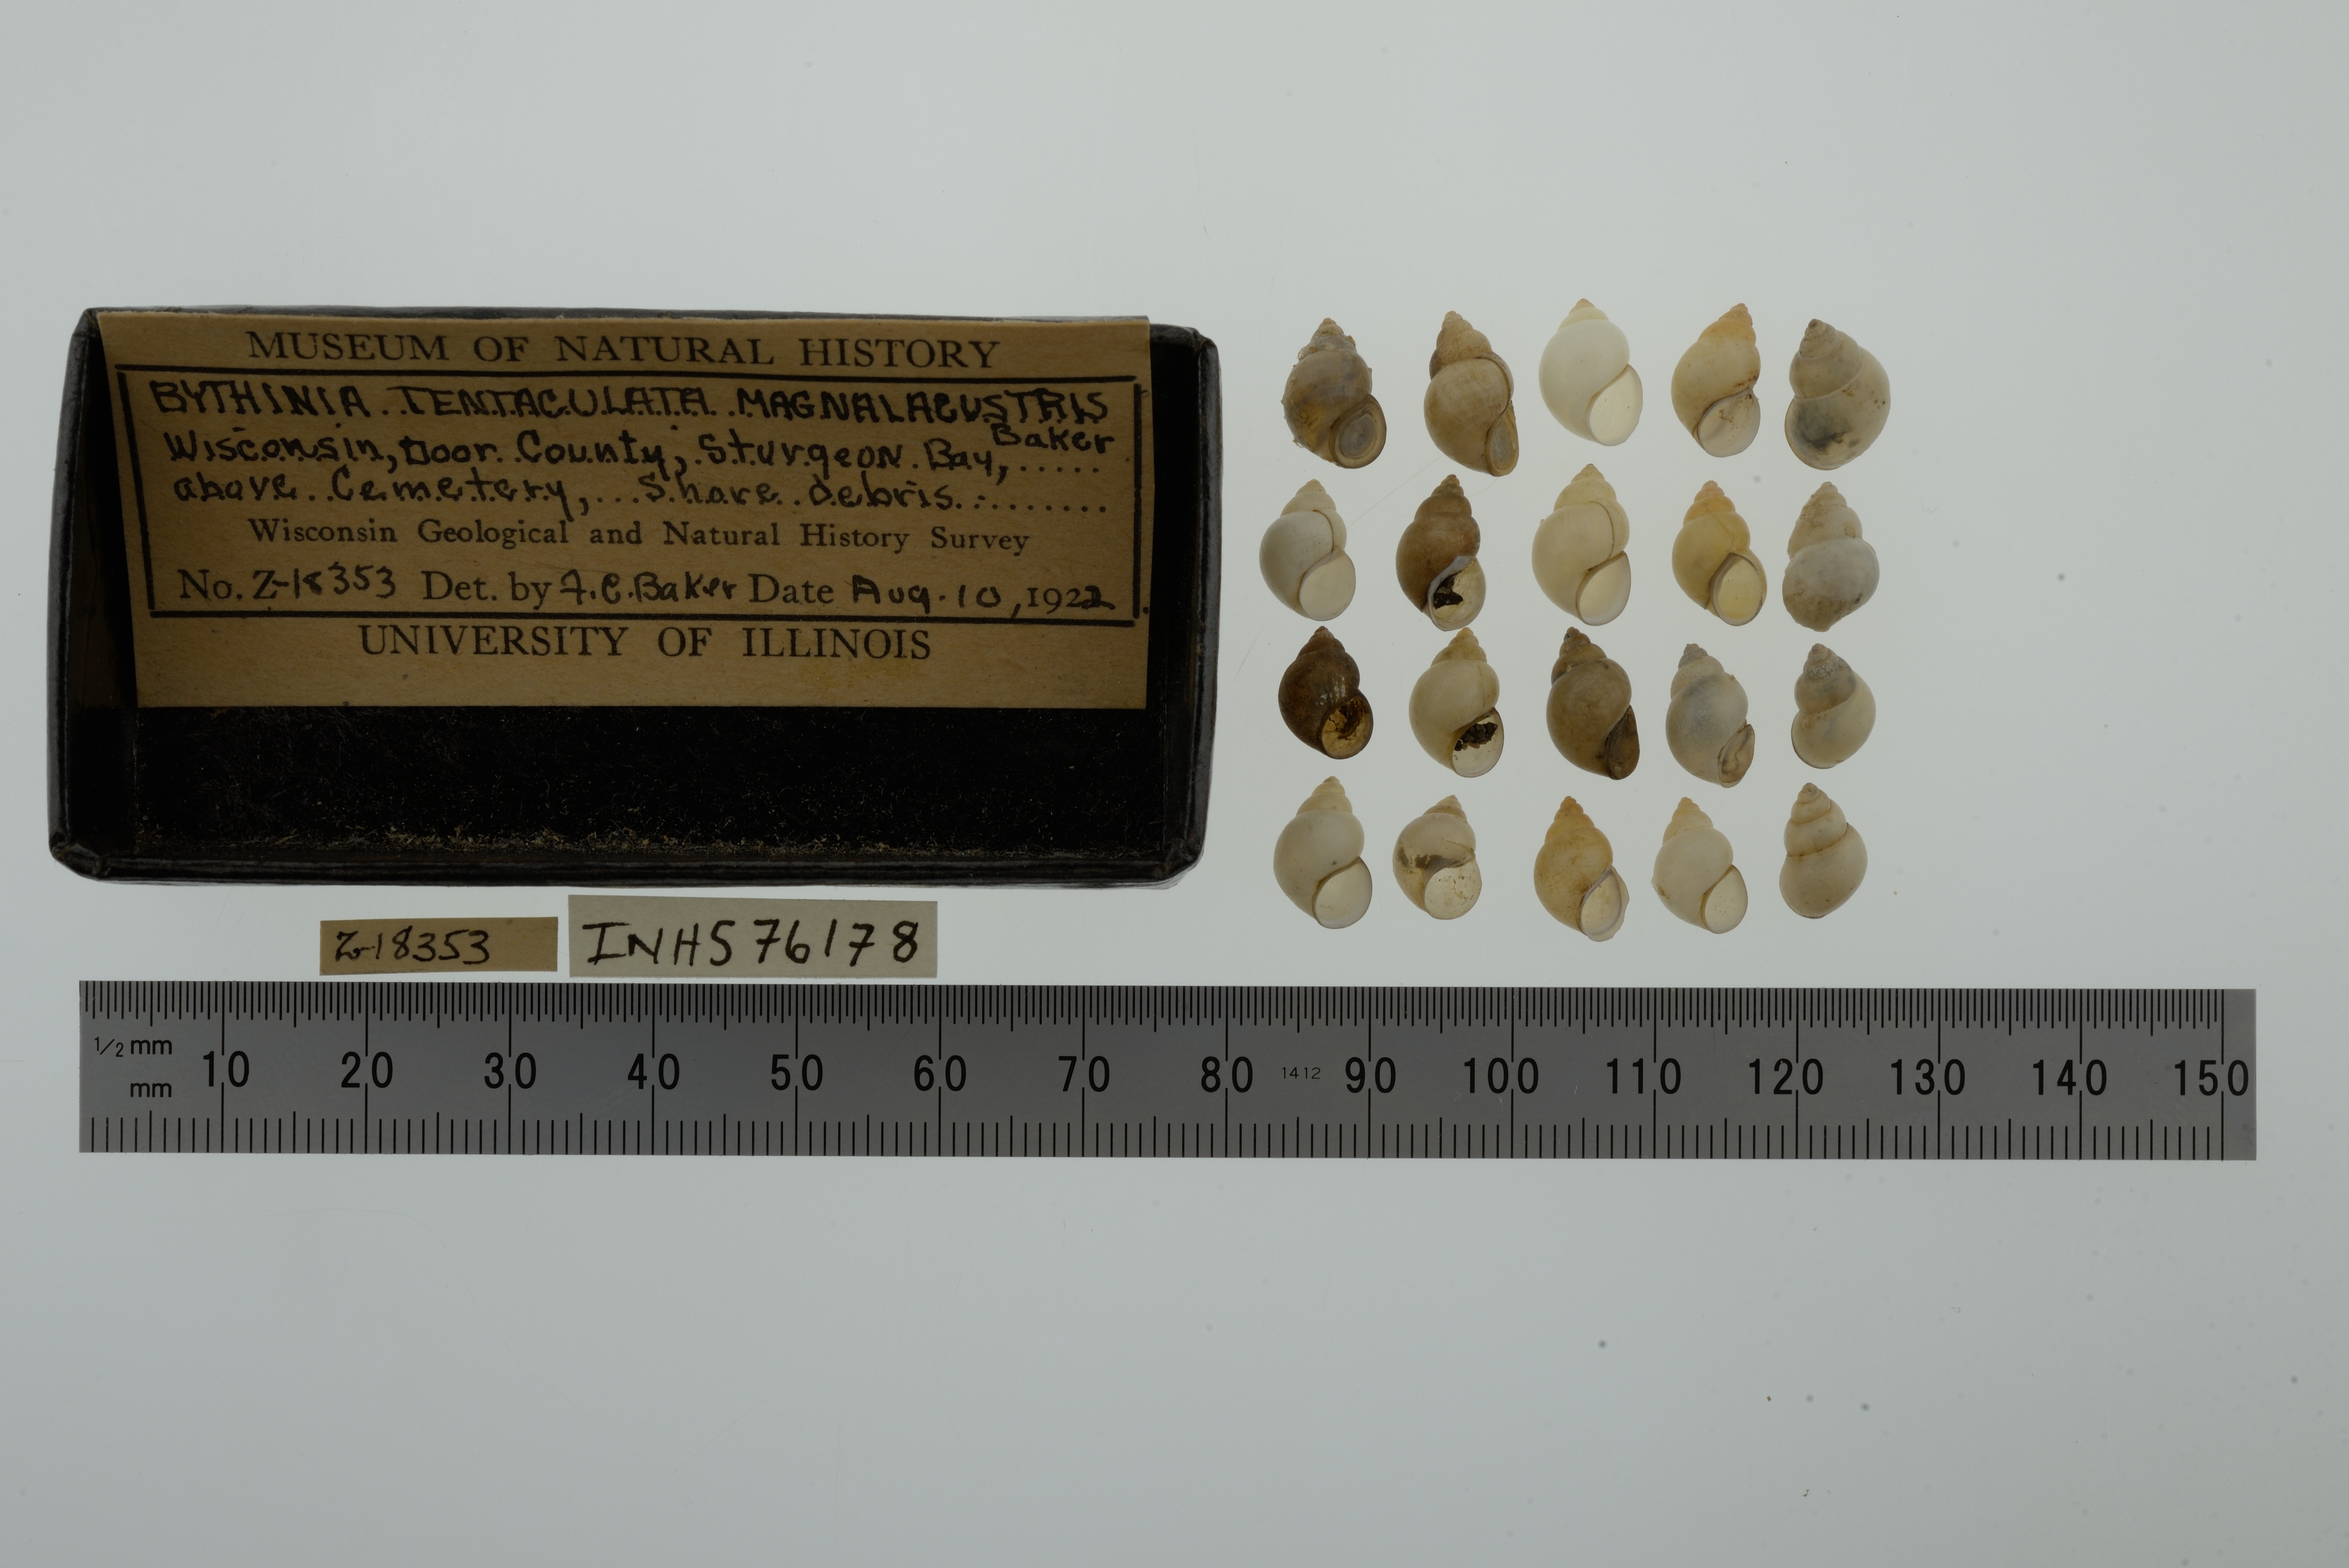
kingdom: Animalia
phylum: Mollusca
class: Gastropoda
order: Littorinimorpha
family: Bithyniidae
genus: Bithynia
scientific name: Bithynia tentaculata
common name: Common bithynia
